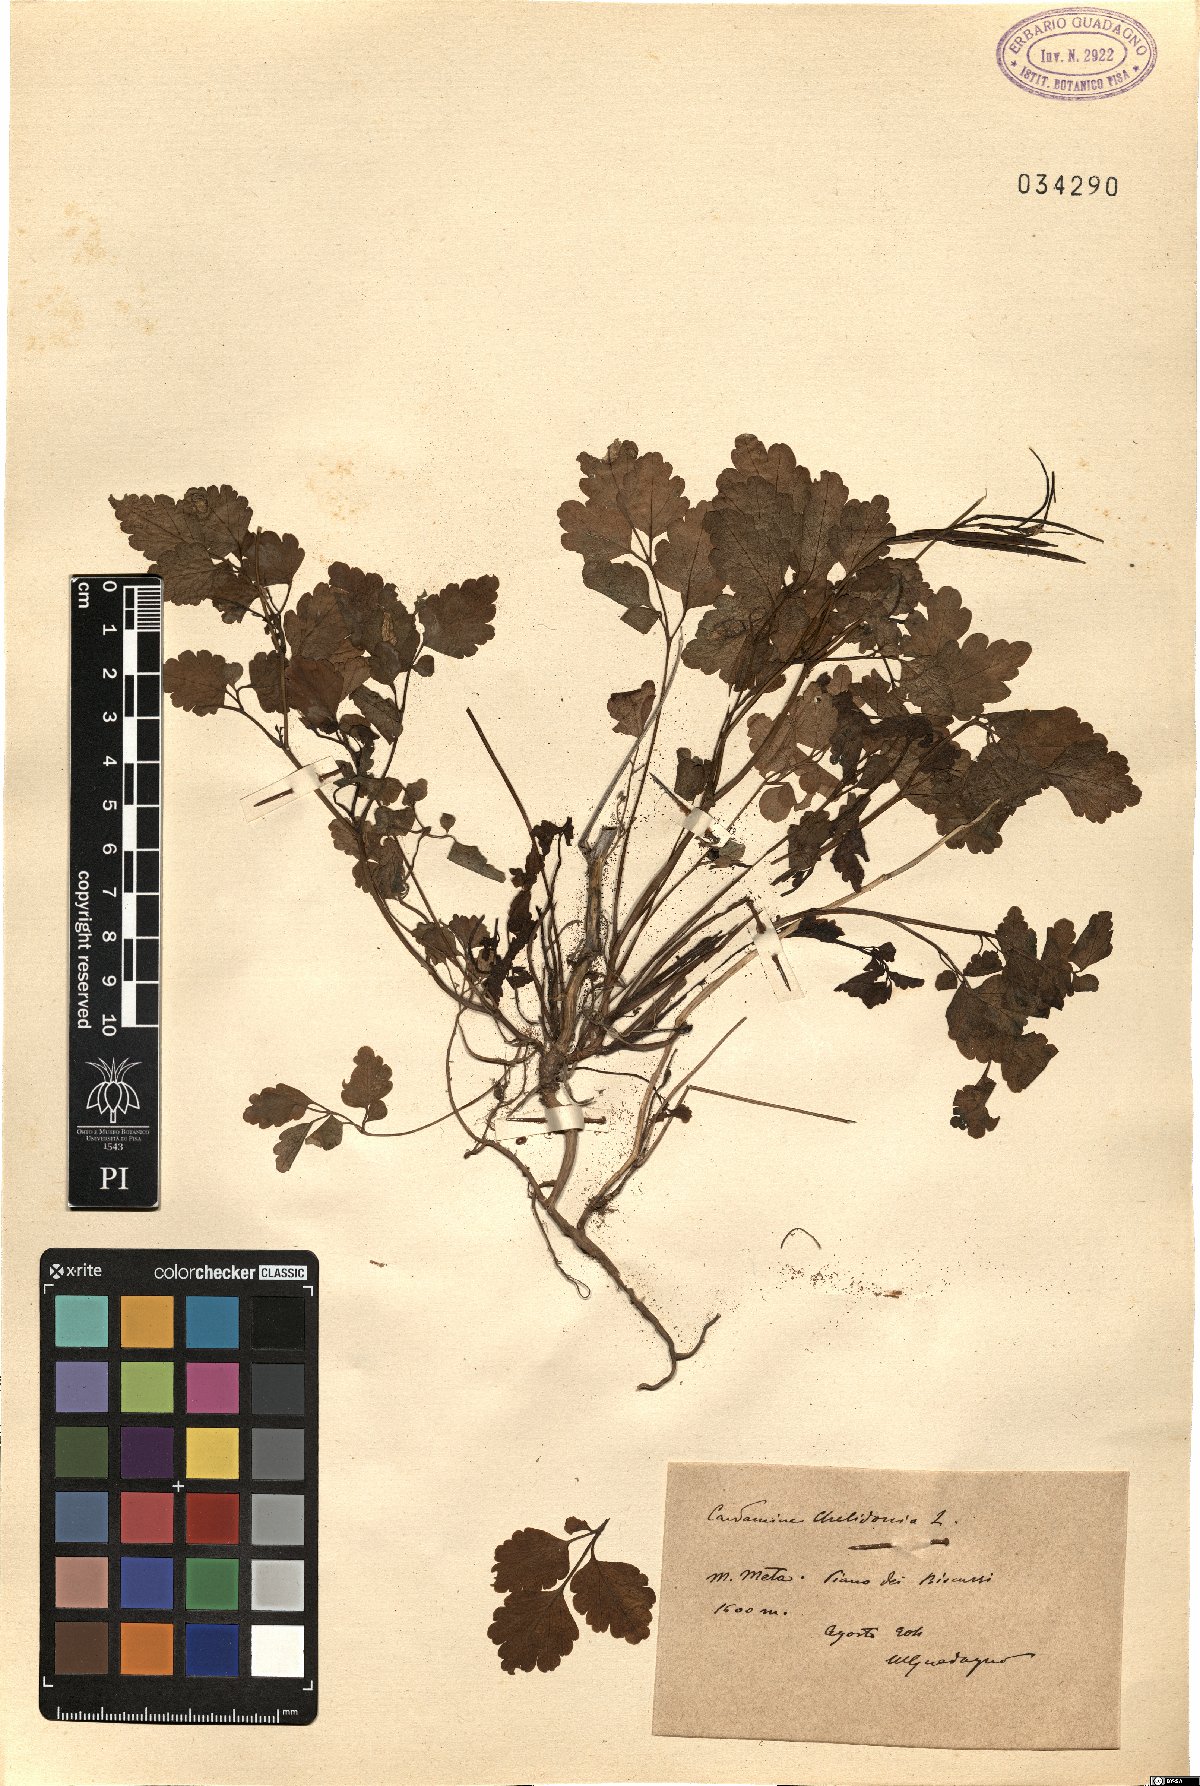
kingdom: Plantae
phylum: Tracheophyta
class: Magnoliopsida
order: Brassicales
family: Brassicaceae
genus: Cardamine
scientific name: Cardamine chelidonia
